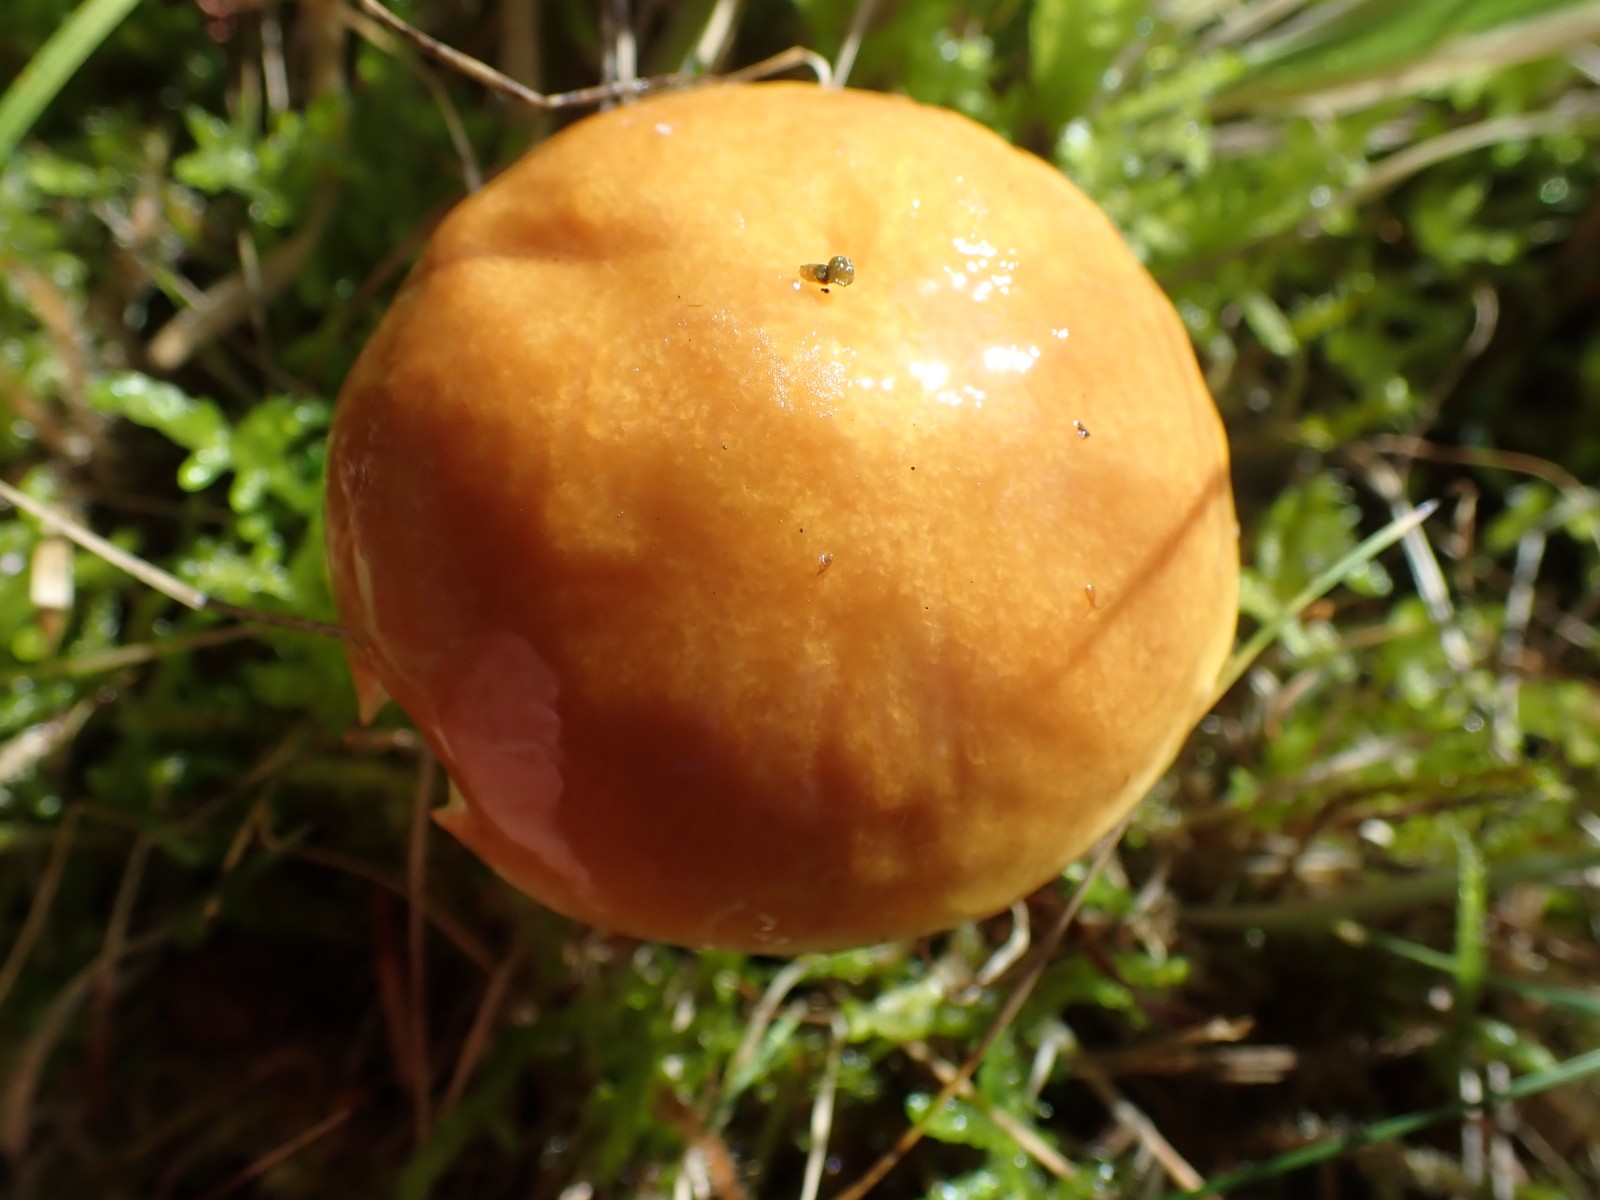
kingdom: Fungi
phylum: Basidiomycota
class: Agaricomycetes
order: Boletales
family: Suillaceae
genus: Suillus
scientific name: Suillus grevillei
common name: lærke-slimrørhat
